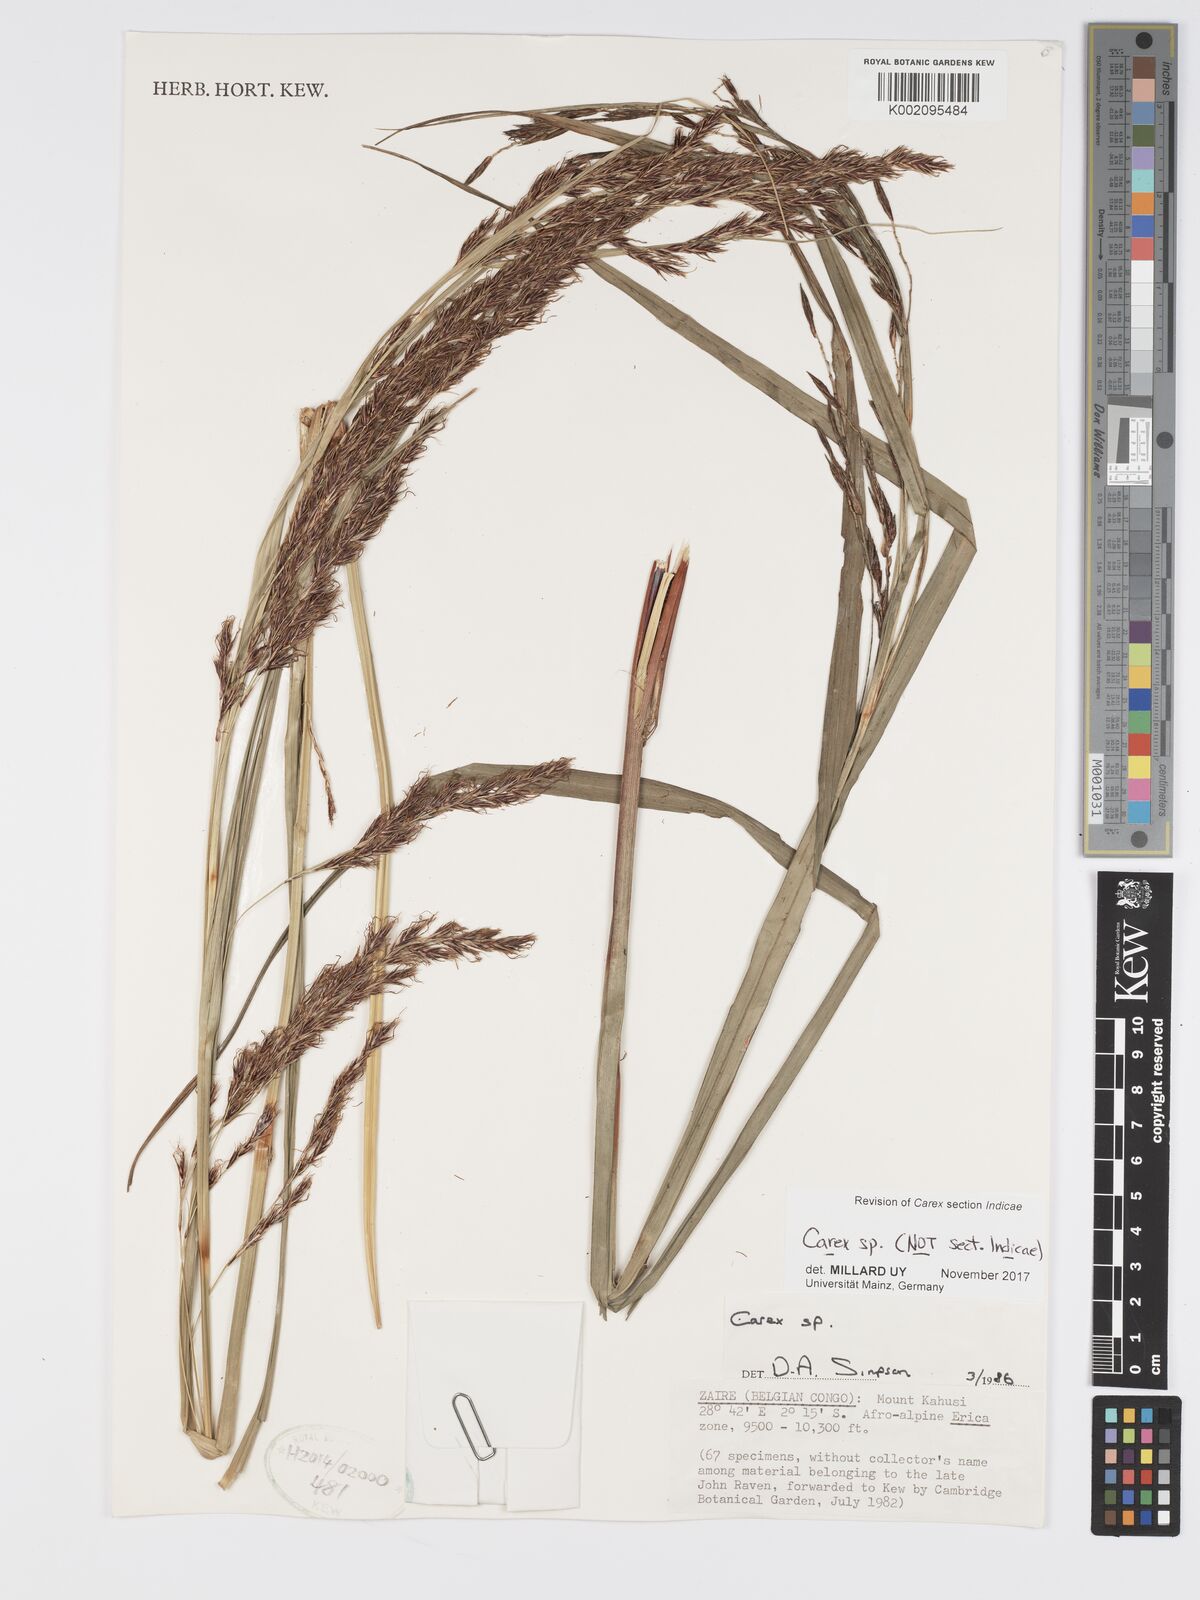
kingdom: Plantae
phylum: Tracheophyta
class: Liliopsida
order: Poales
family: Cyperaceae
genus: Carex
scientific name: Carex
